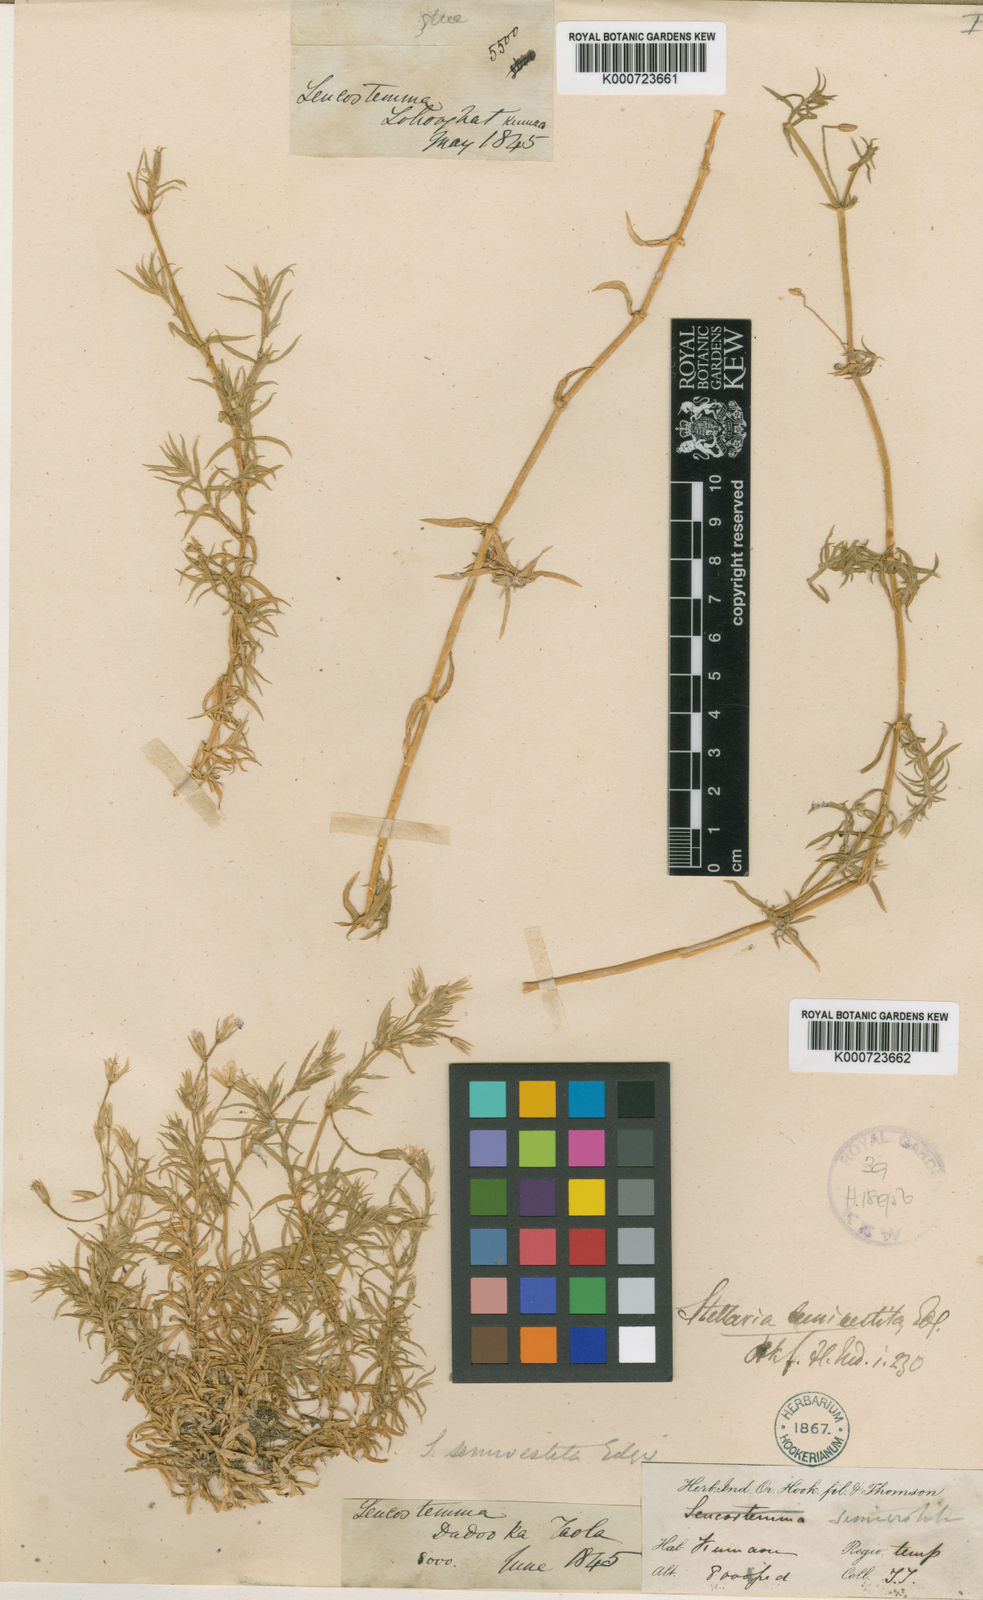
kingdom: Plantae
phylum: Tracheophyta
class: Magnoliopsida
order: Caryophyllales
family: Caryophyllaceae
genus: Stellaria
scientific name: Stellaria semivestita
